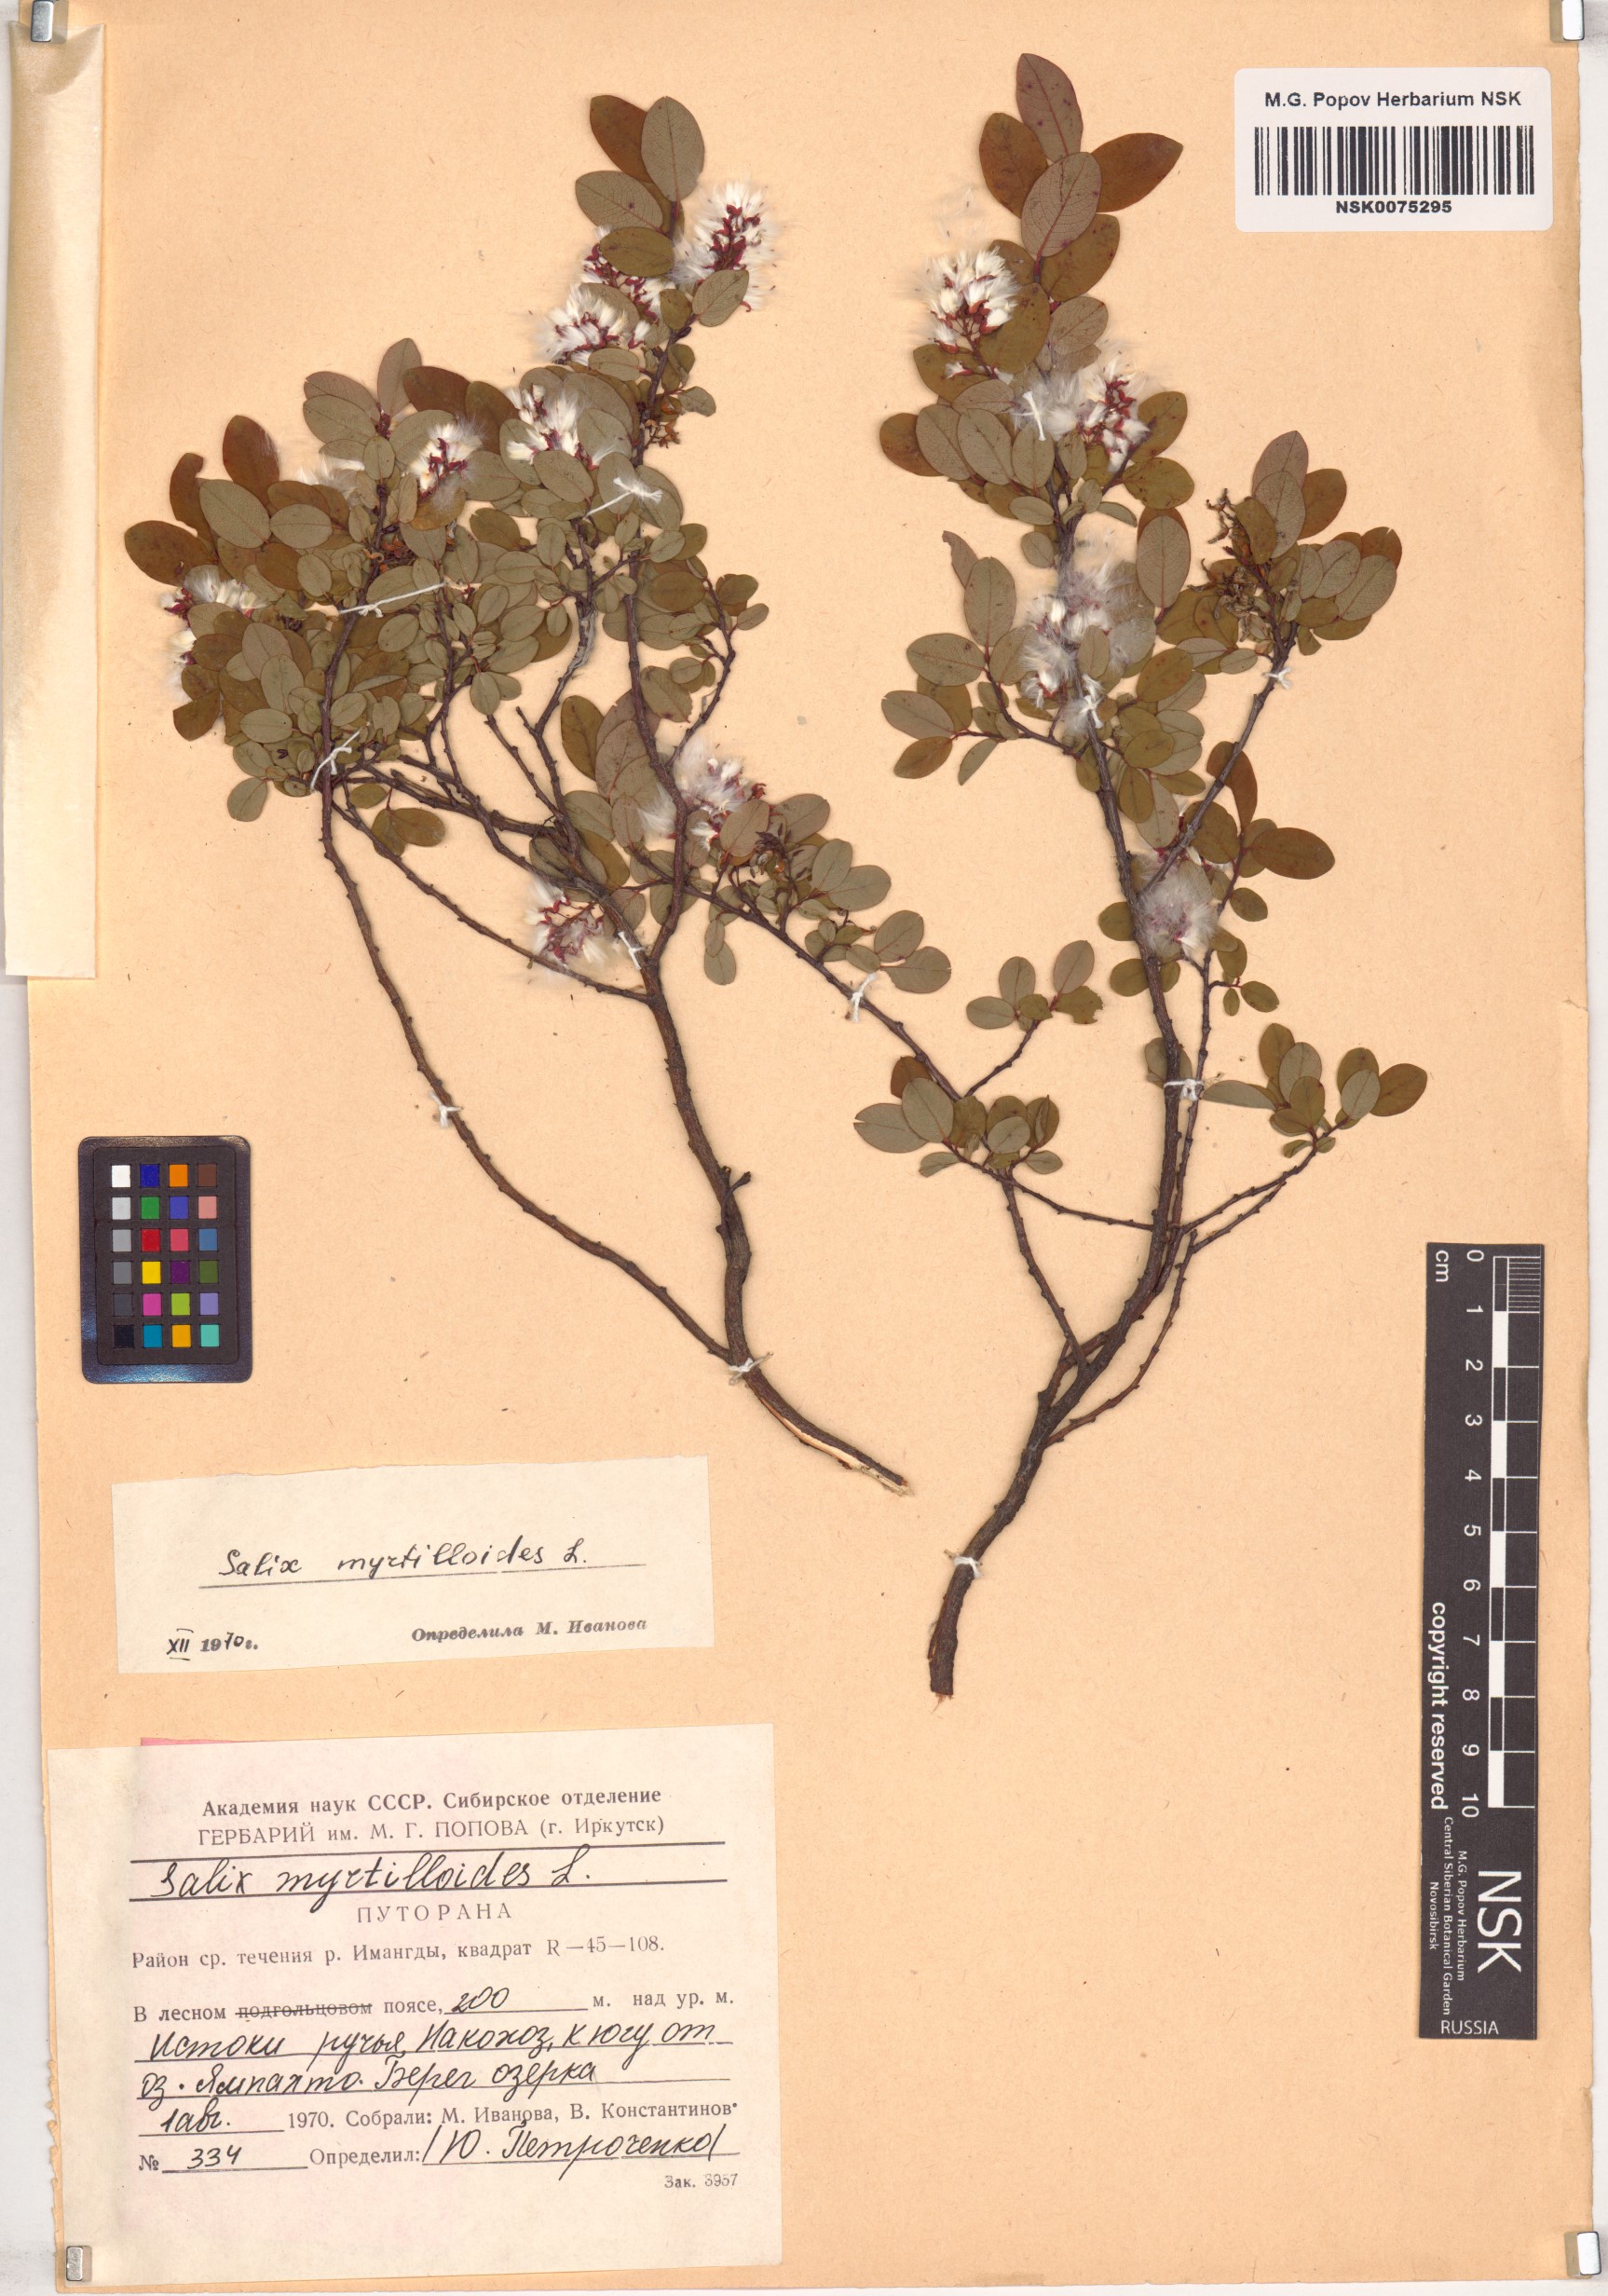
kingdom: Plantae
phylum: Tracheophyta
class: Magnoliopsida
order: Malpighiales
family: Salicaceae
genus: Salix
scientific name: Salix myrtilloides
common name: Myrtle-leaved willow
